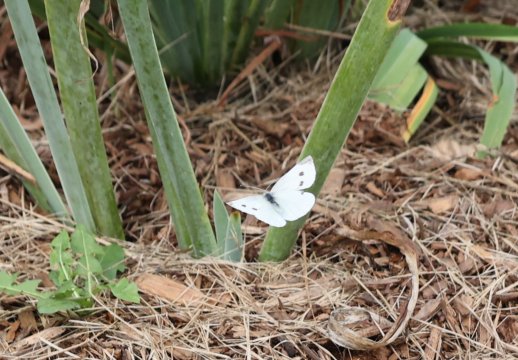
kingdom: Animalia
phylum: Arthropoda
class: Insecta
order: Lepidoptera
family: Pieridae
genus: Pieris
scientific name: Pieris rapae
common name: Cabbage White
